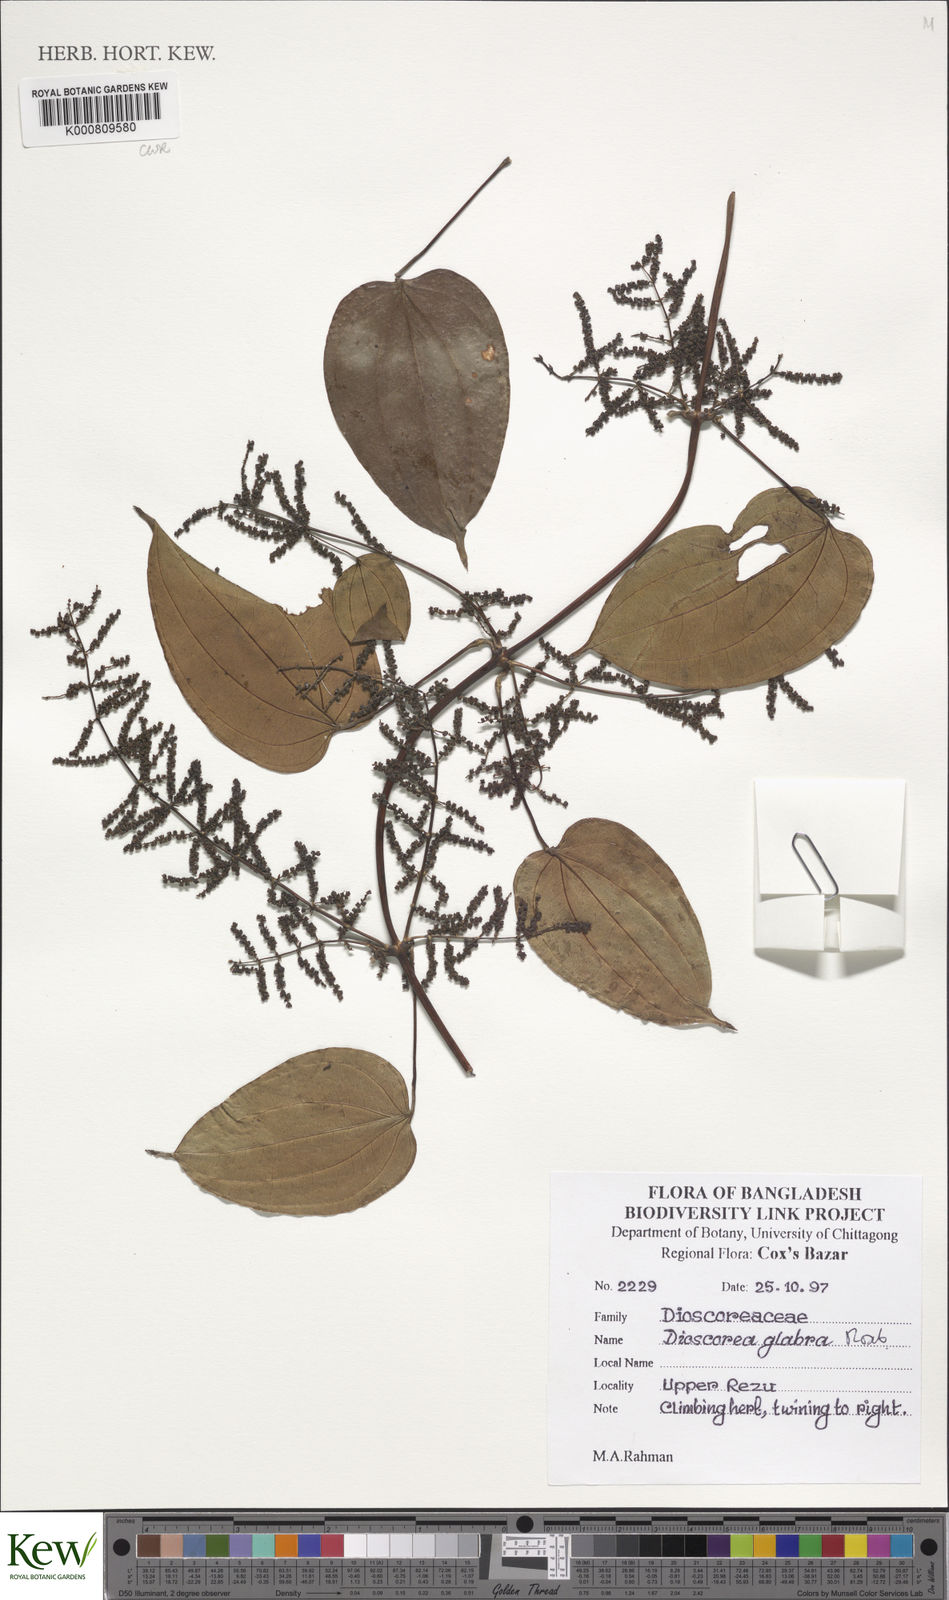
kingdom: Plantae
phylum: Tracheophyta
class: Liliopsida
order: Dioscoreales
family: Dioscoreaceae
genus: Dioscorea
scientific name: Dioscorea glabra
